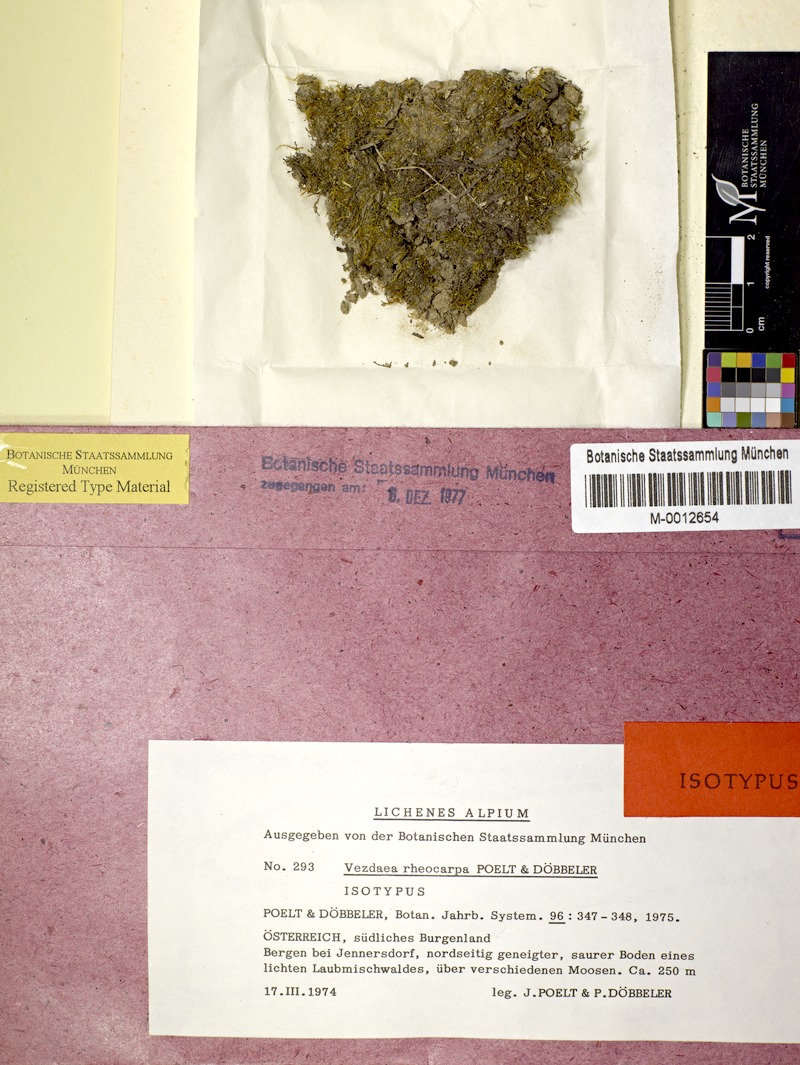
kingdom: Fungi
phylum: Ascomycota
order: Vezdaeales
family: Vezdaeaceae
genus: Vezdaea
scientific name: Vezdaea rheocarpa
